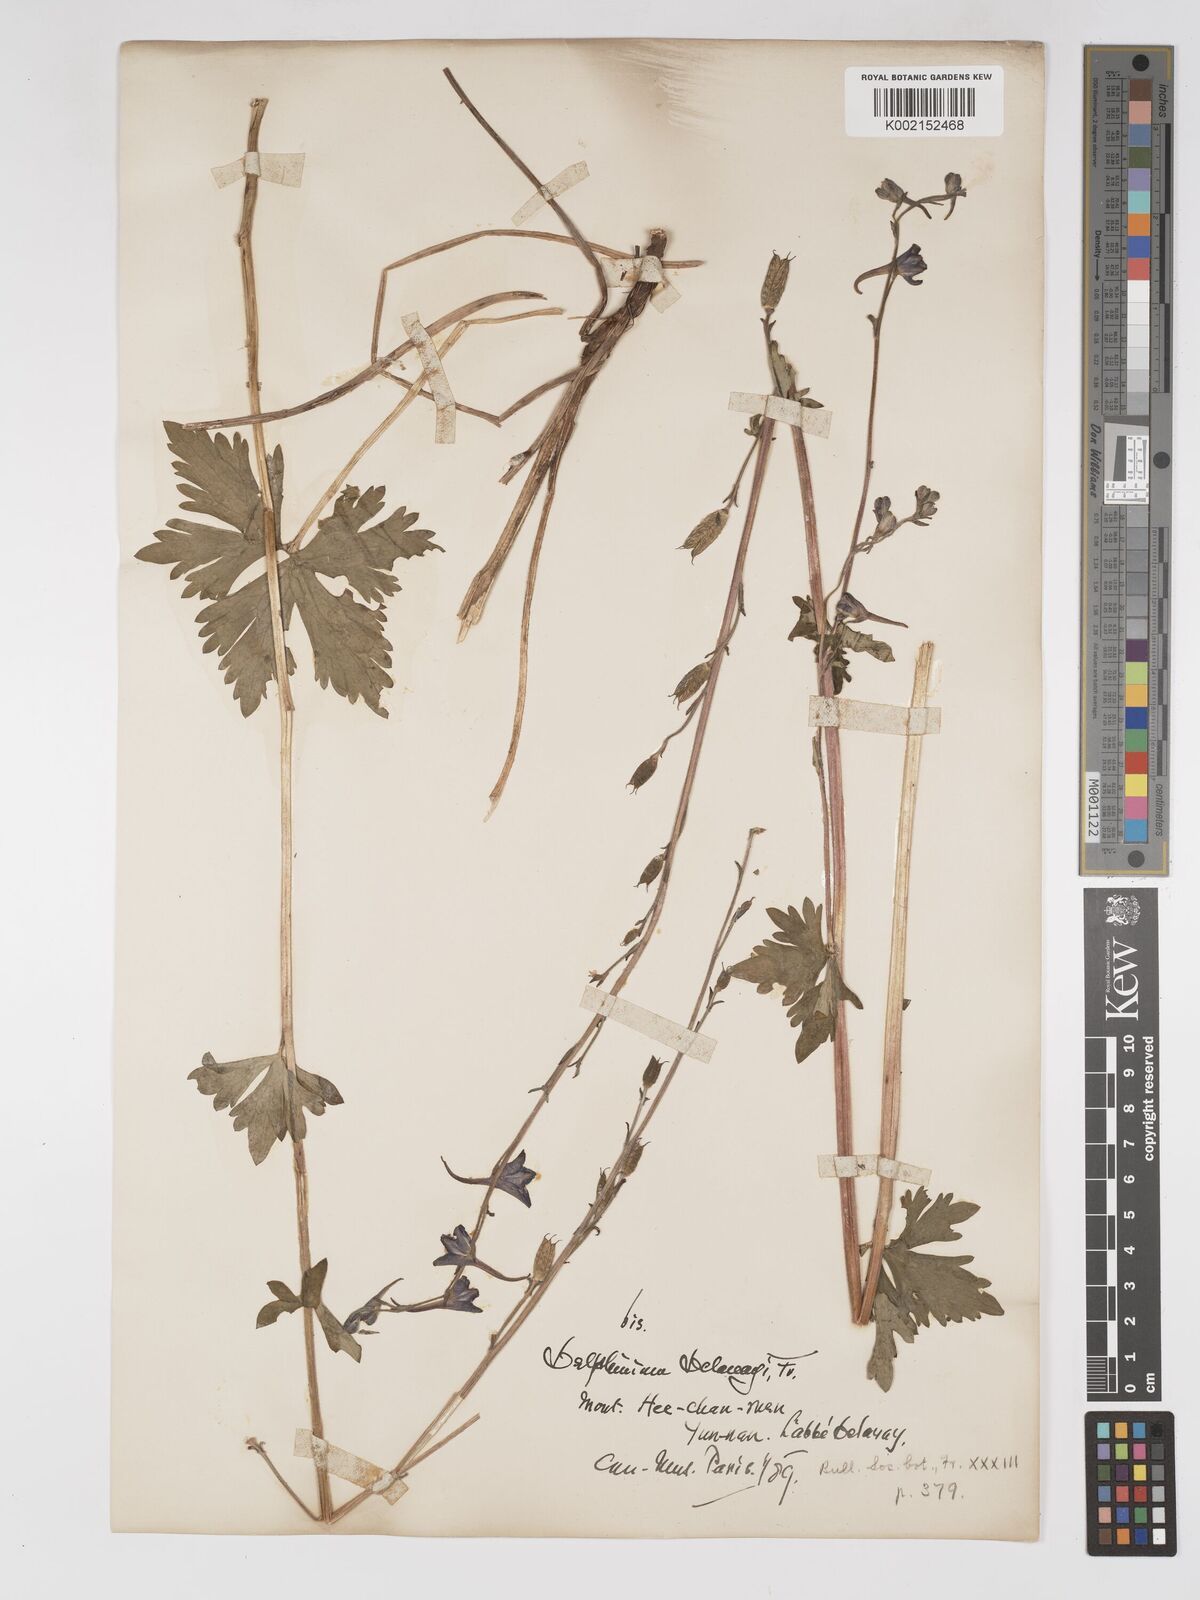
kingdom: Plantae
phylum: Tracheophyta
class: Magnoliopsida
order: Ranunculales
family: Ranunculaceae
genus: Delphinium
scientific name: Delphinium delavayi
